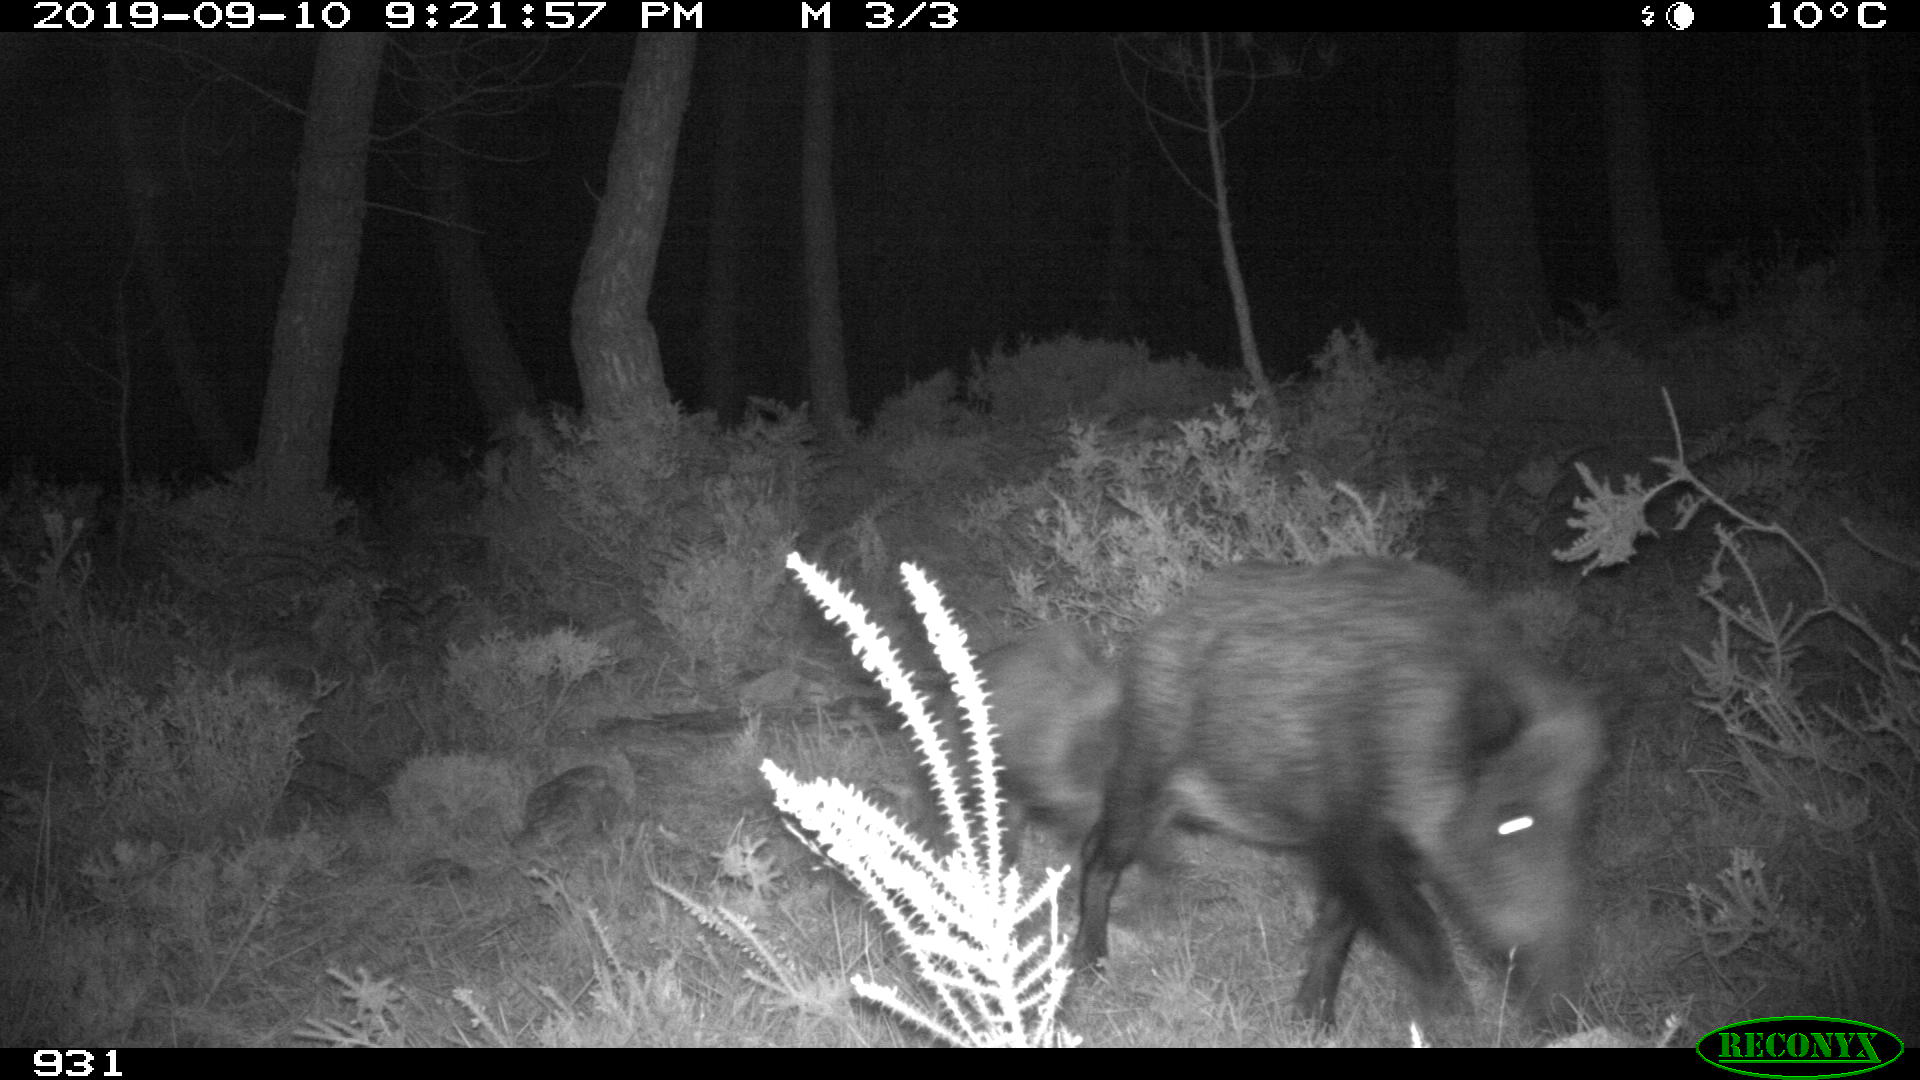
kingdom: Animalia
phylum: Chordata
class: Mammalia
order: Artiodactyla
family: Suidae
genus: Sus
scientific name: Sus scrofa
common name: Wild boar
